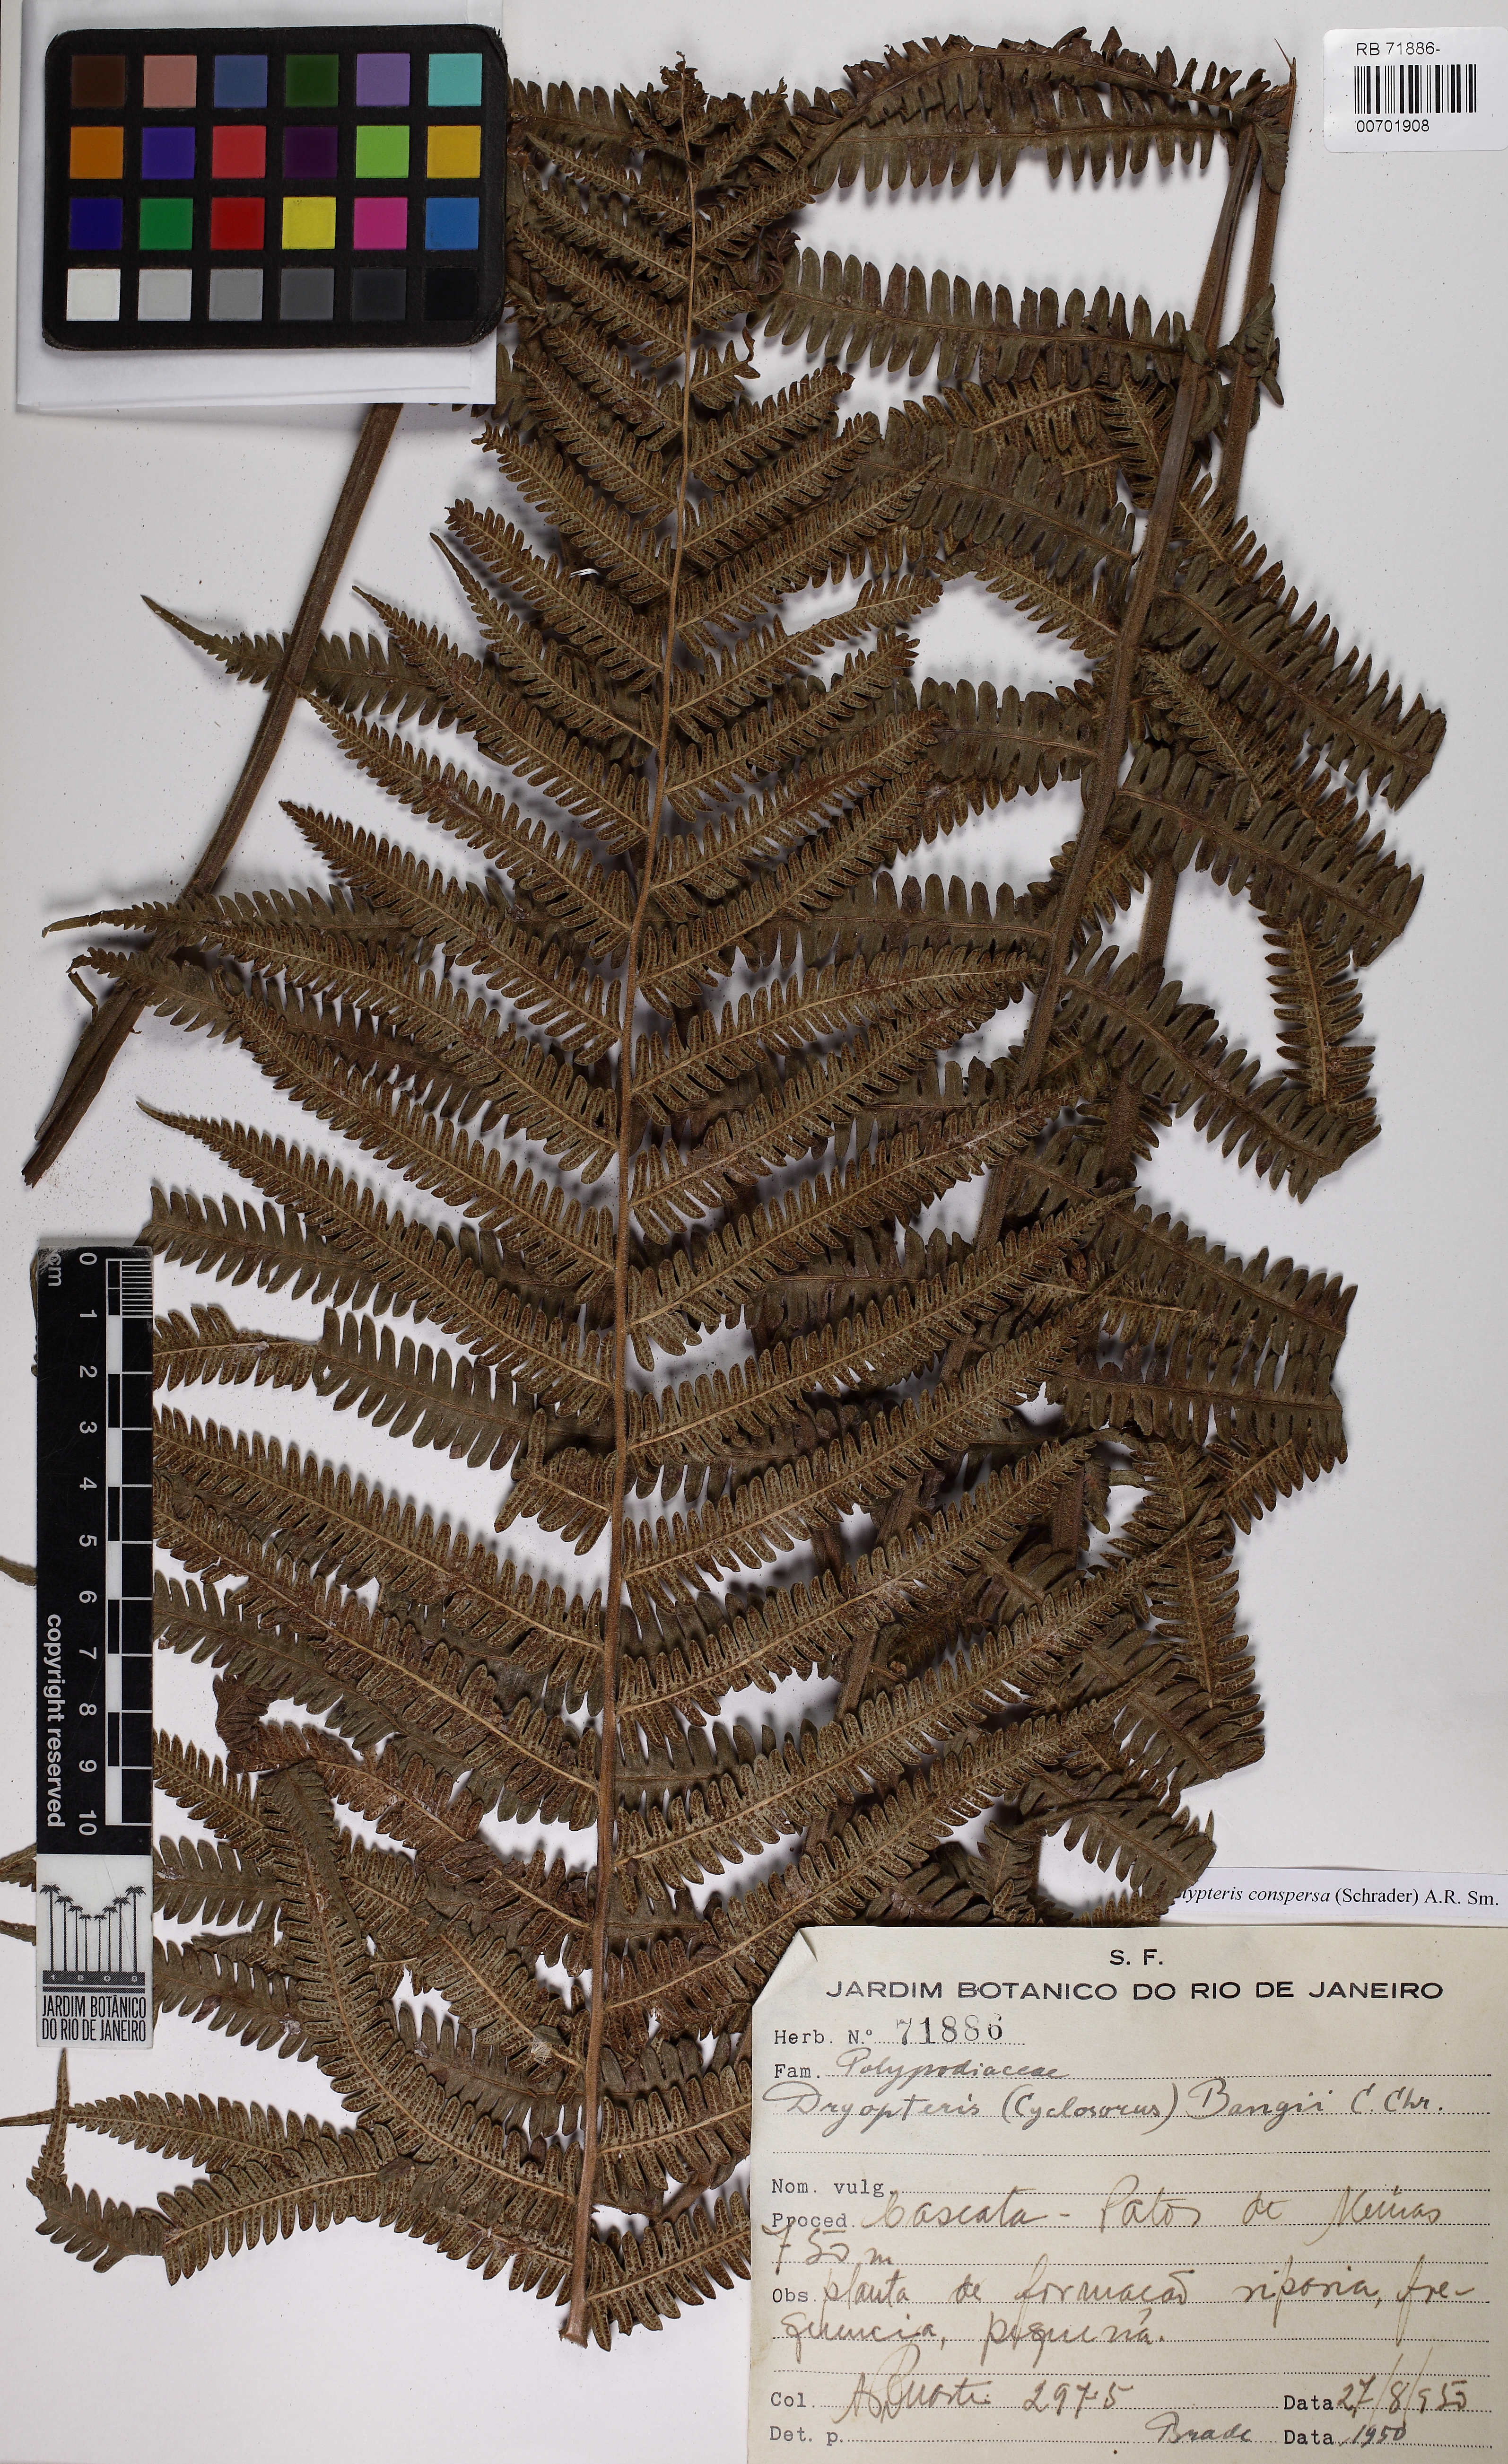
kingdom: Plantae
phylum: Tracheophyta
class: Polypodiopsida
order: Polypodiales
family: Thelypteridaceae
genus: Christella
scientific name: Christella conspersa
